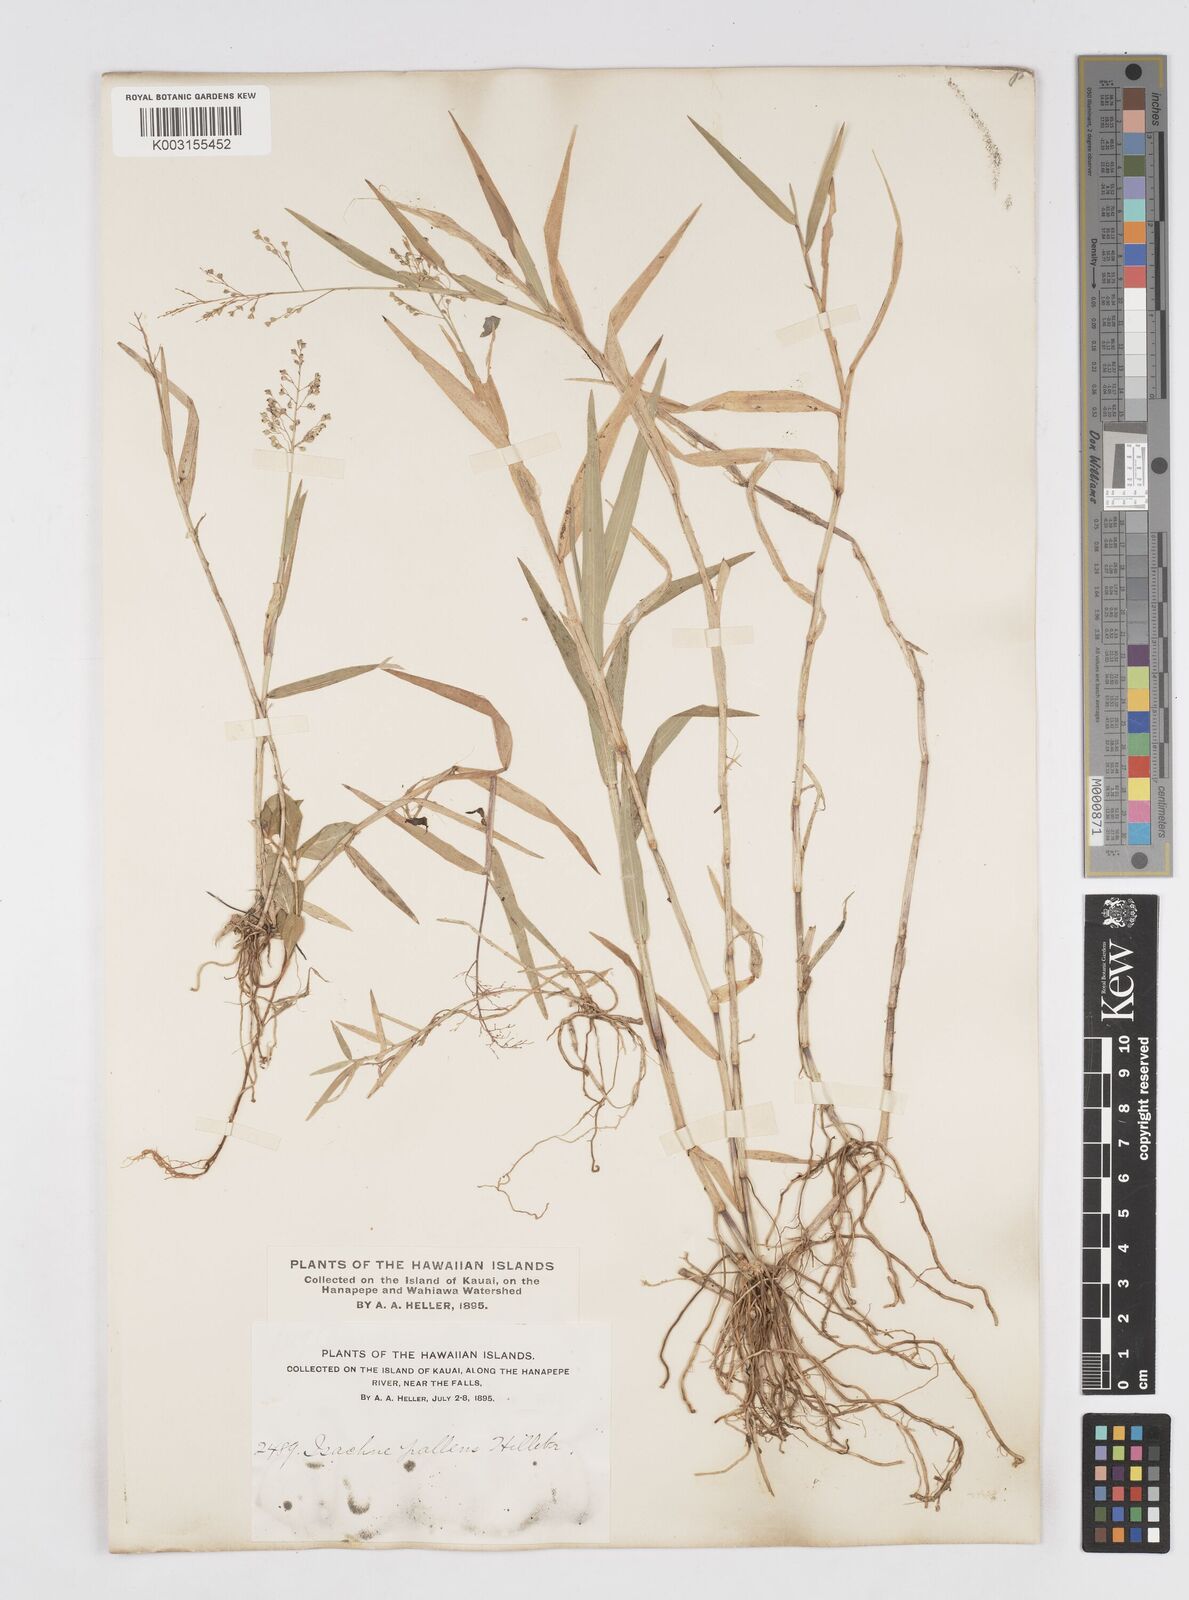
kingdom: Plantae
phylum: Tracheophyta
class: Liliopsida
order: Poales
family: Poaceae
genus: Isachne
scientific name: Isachne pallens
